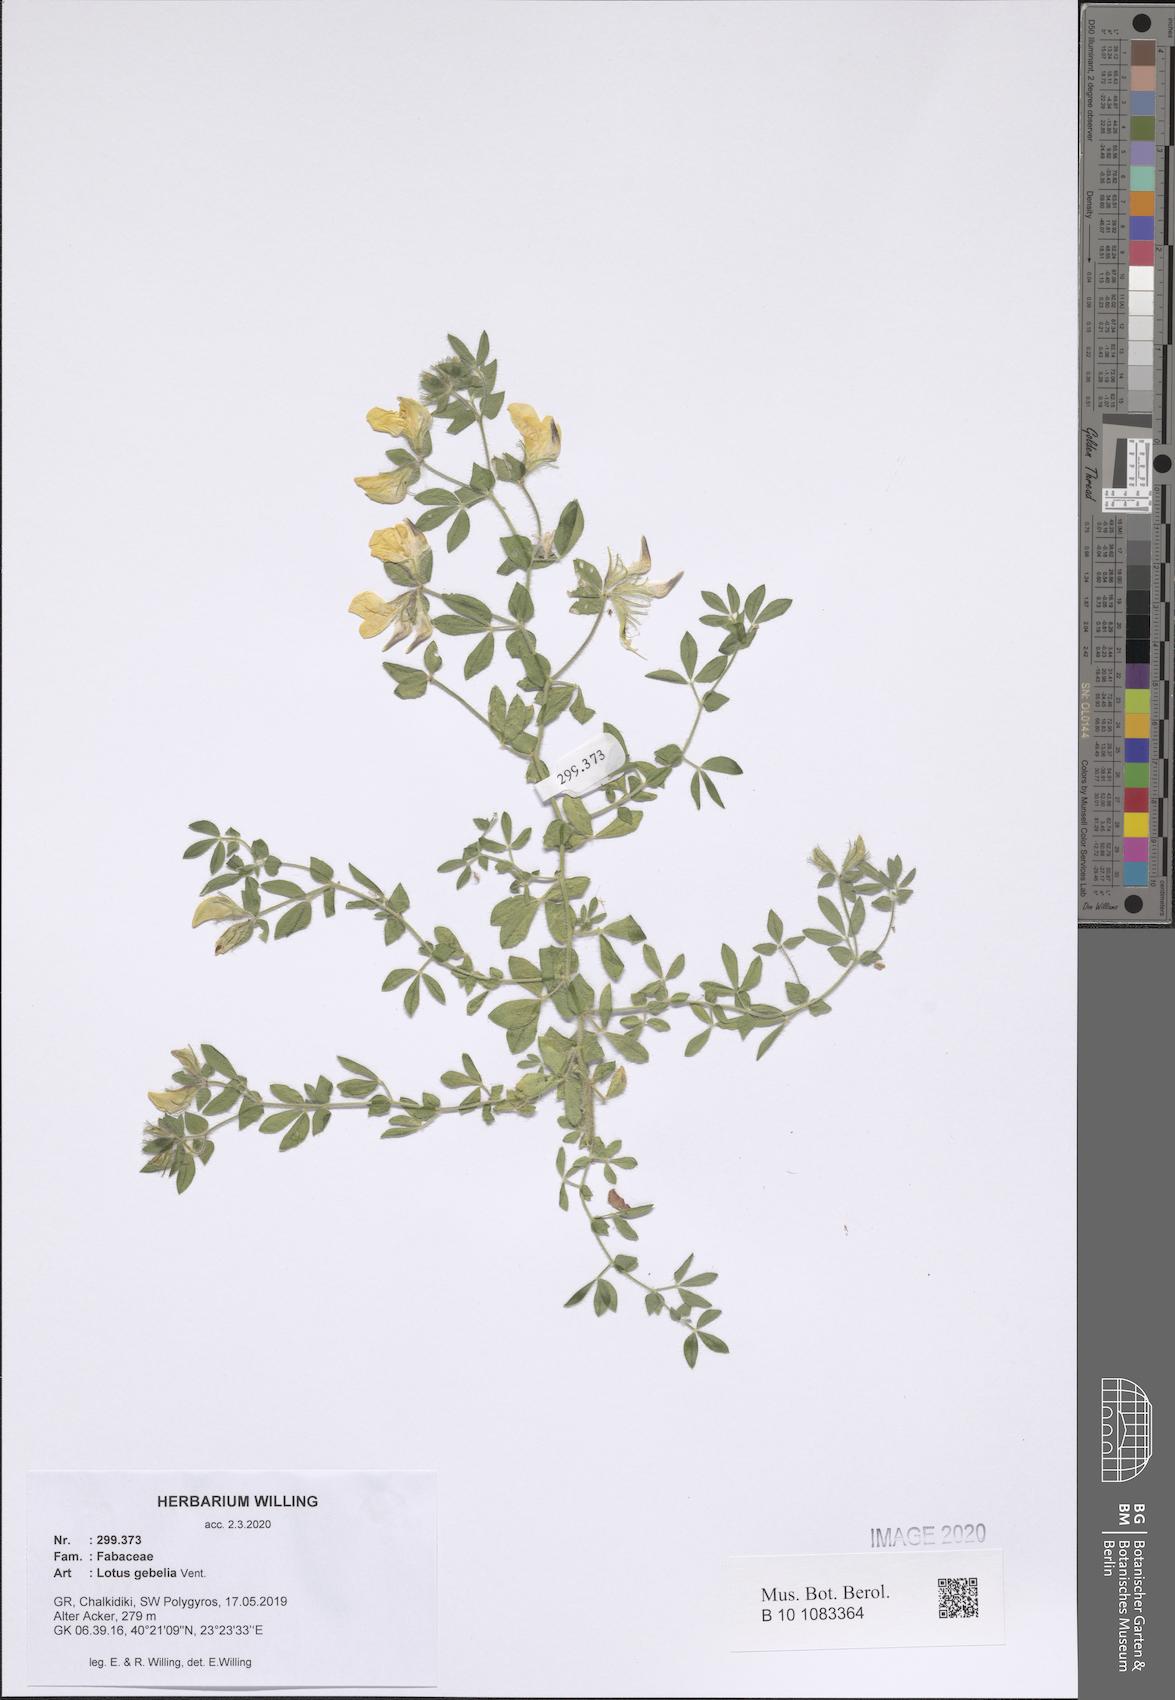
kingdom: Plantae
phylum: Tracheophyta
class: Magnoliopsida
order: Fabales
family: Fabaceae
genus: Lotus
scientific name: Lotus gebelia
